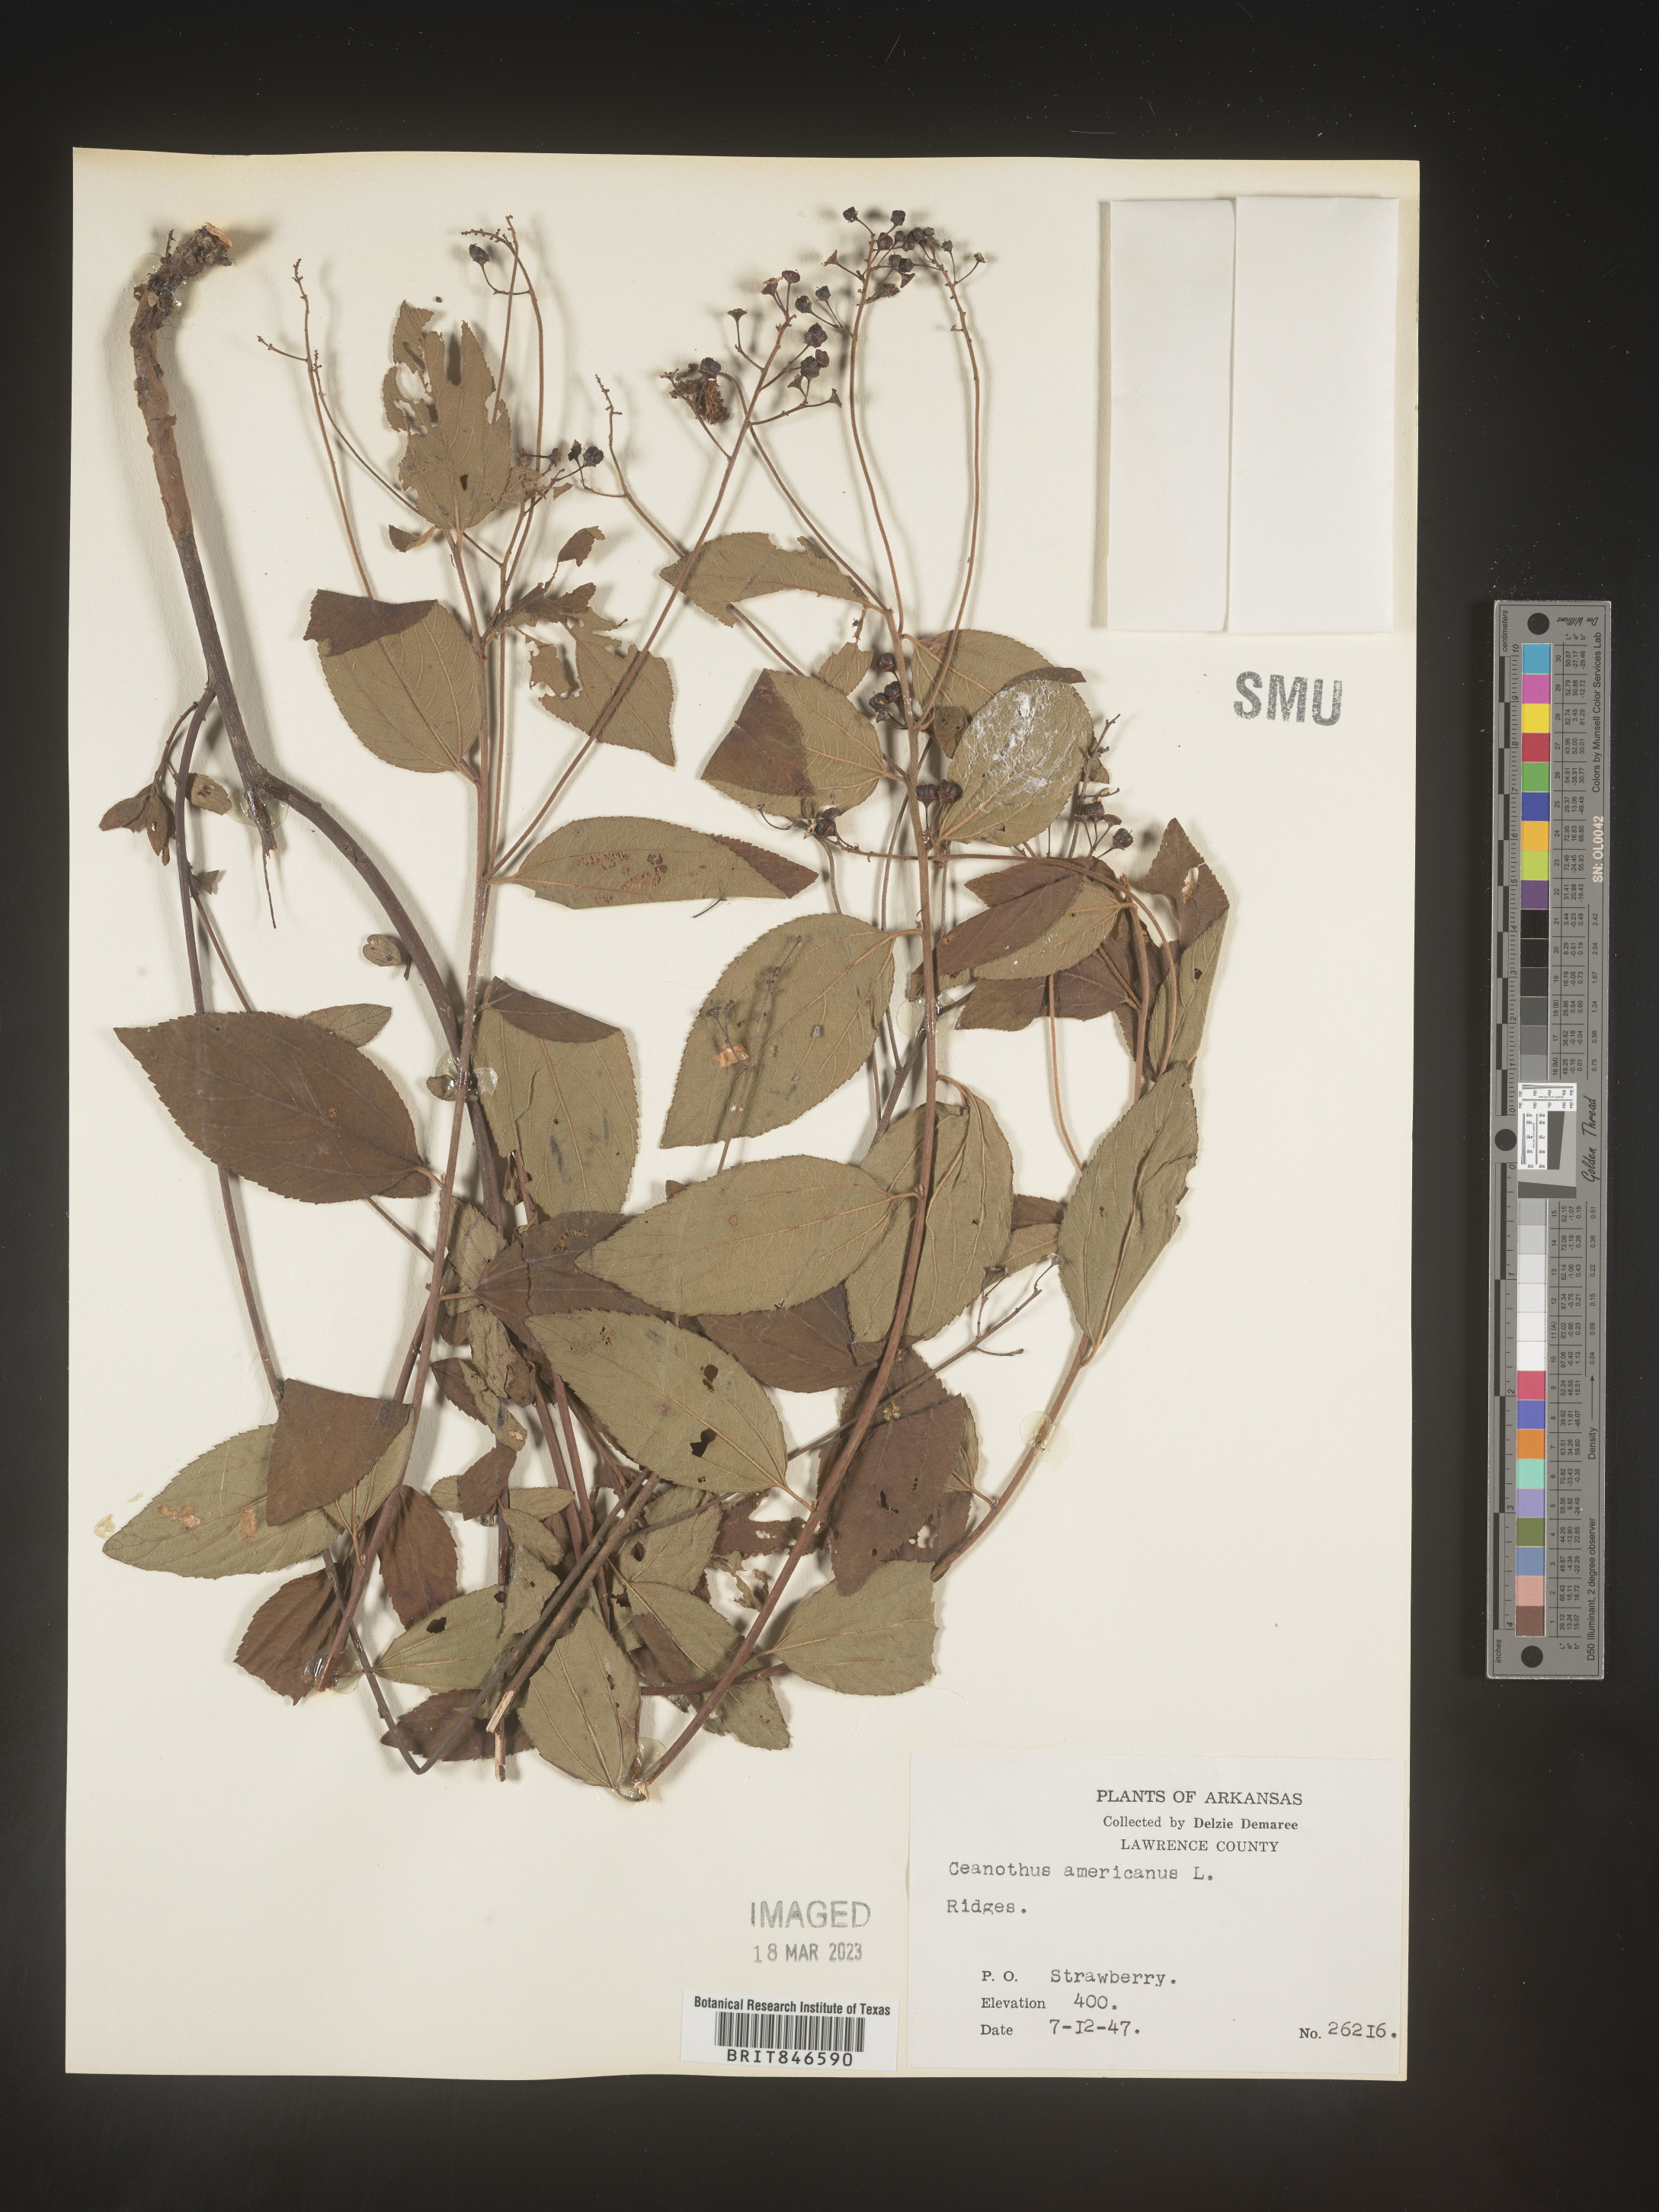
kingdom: Plantae
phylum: Tracheophyta
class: Magnoliopsida
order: Rosales
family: Rhamnaceae
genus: Ceanothus
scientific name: Ceanothus americanus
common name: Redroot
